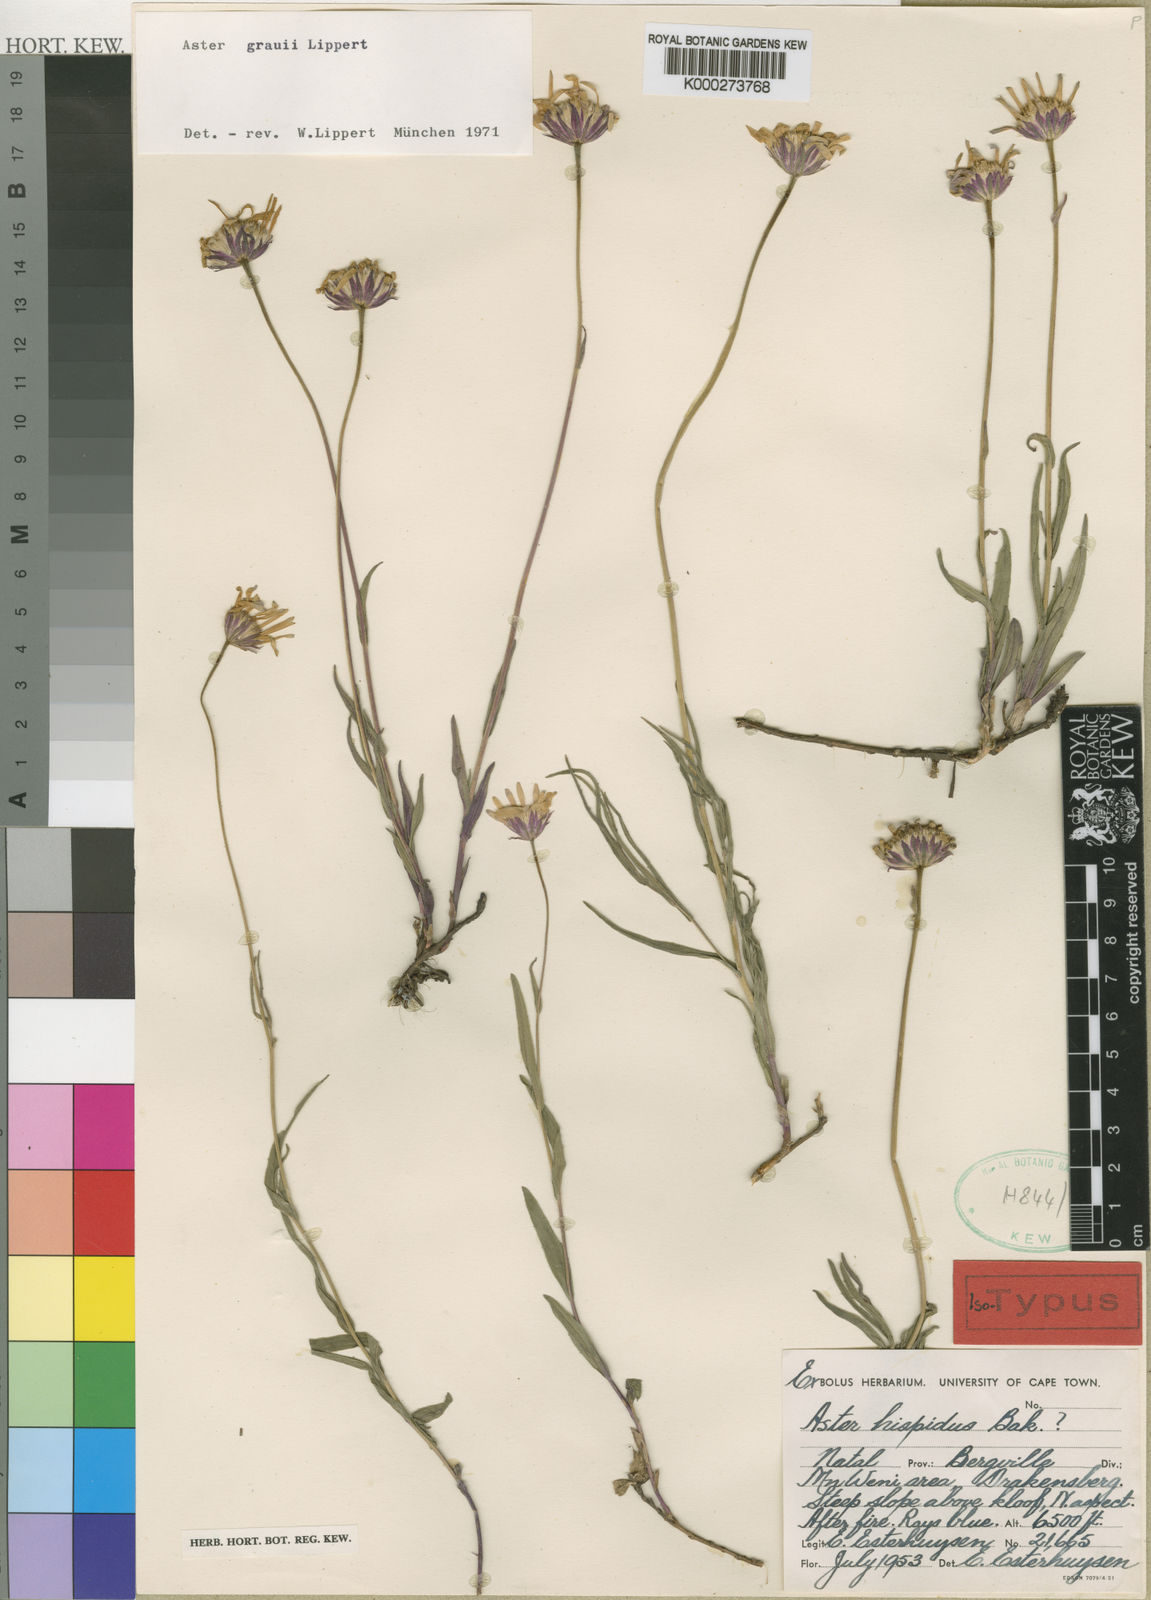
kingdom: Plantae
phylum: Tracheophyta
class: Magnoliopsida
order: Asterales
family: Asteraceae
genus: Felicia
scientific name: Felicia hispida
